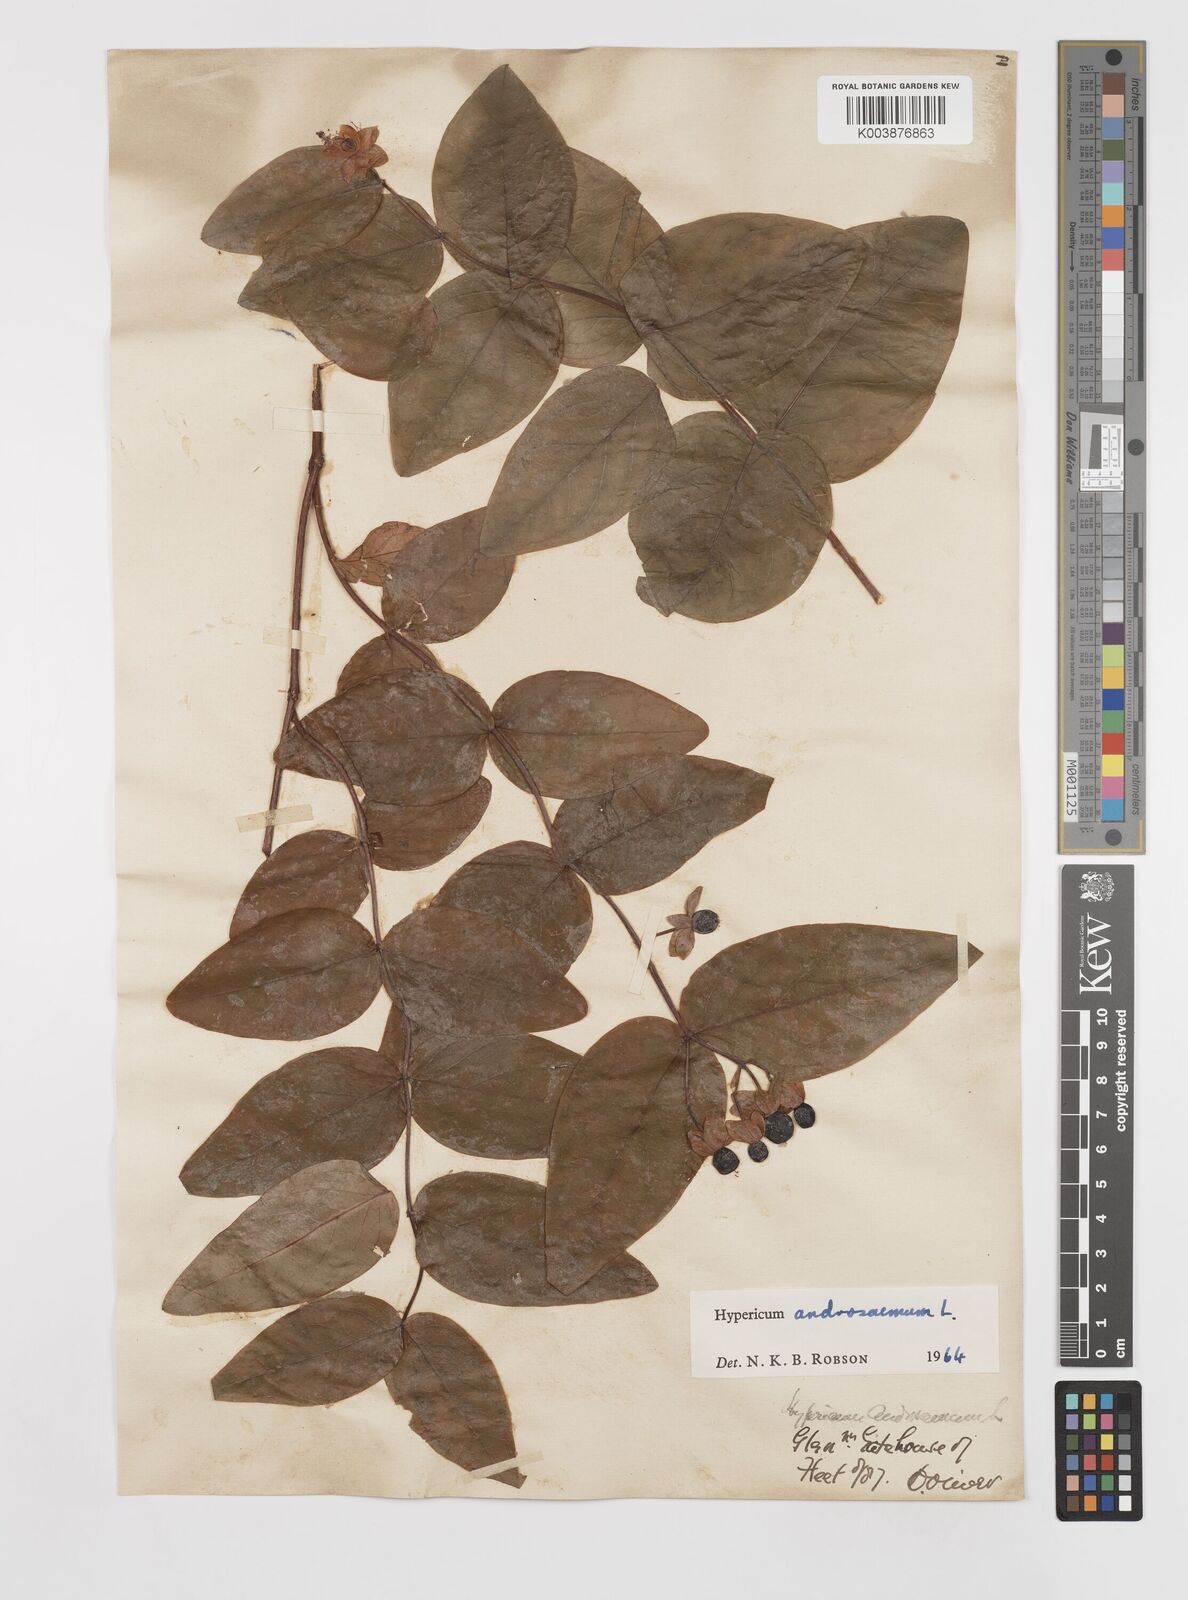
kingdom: Plantae
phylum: Tracheophyta
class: Magnoliopsida
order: Malpighiales
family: Hypericaceae
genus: Hypericum
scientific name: Hypericum androsaemum
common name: Sweet-amber
